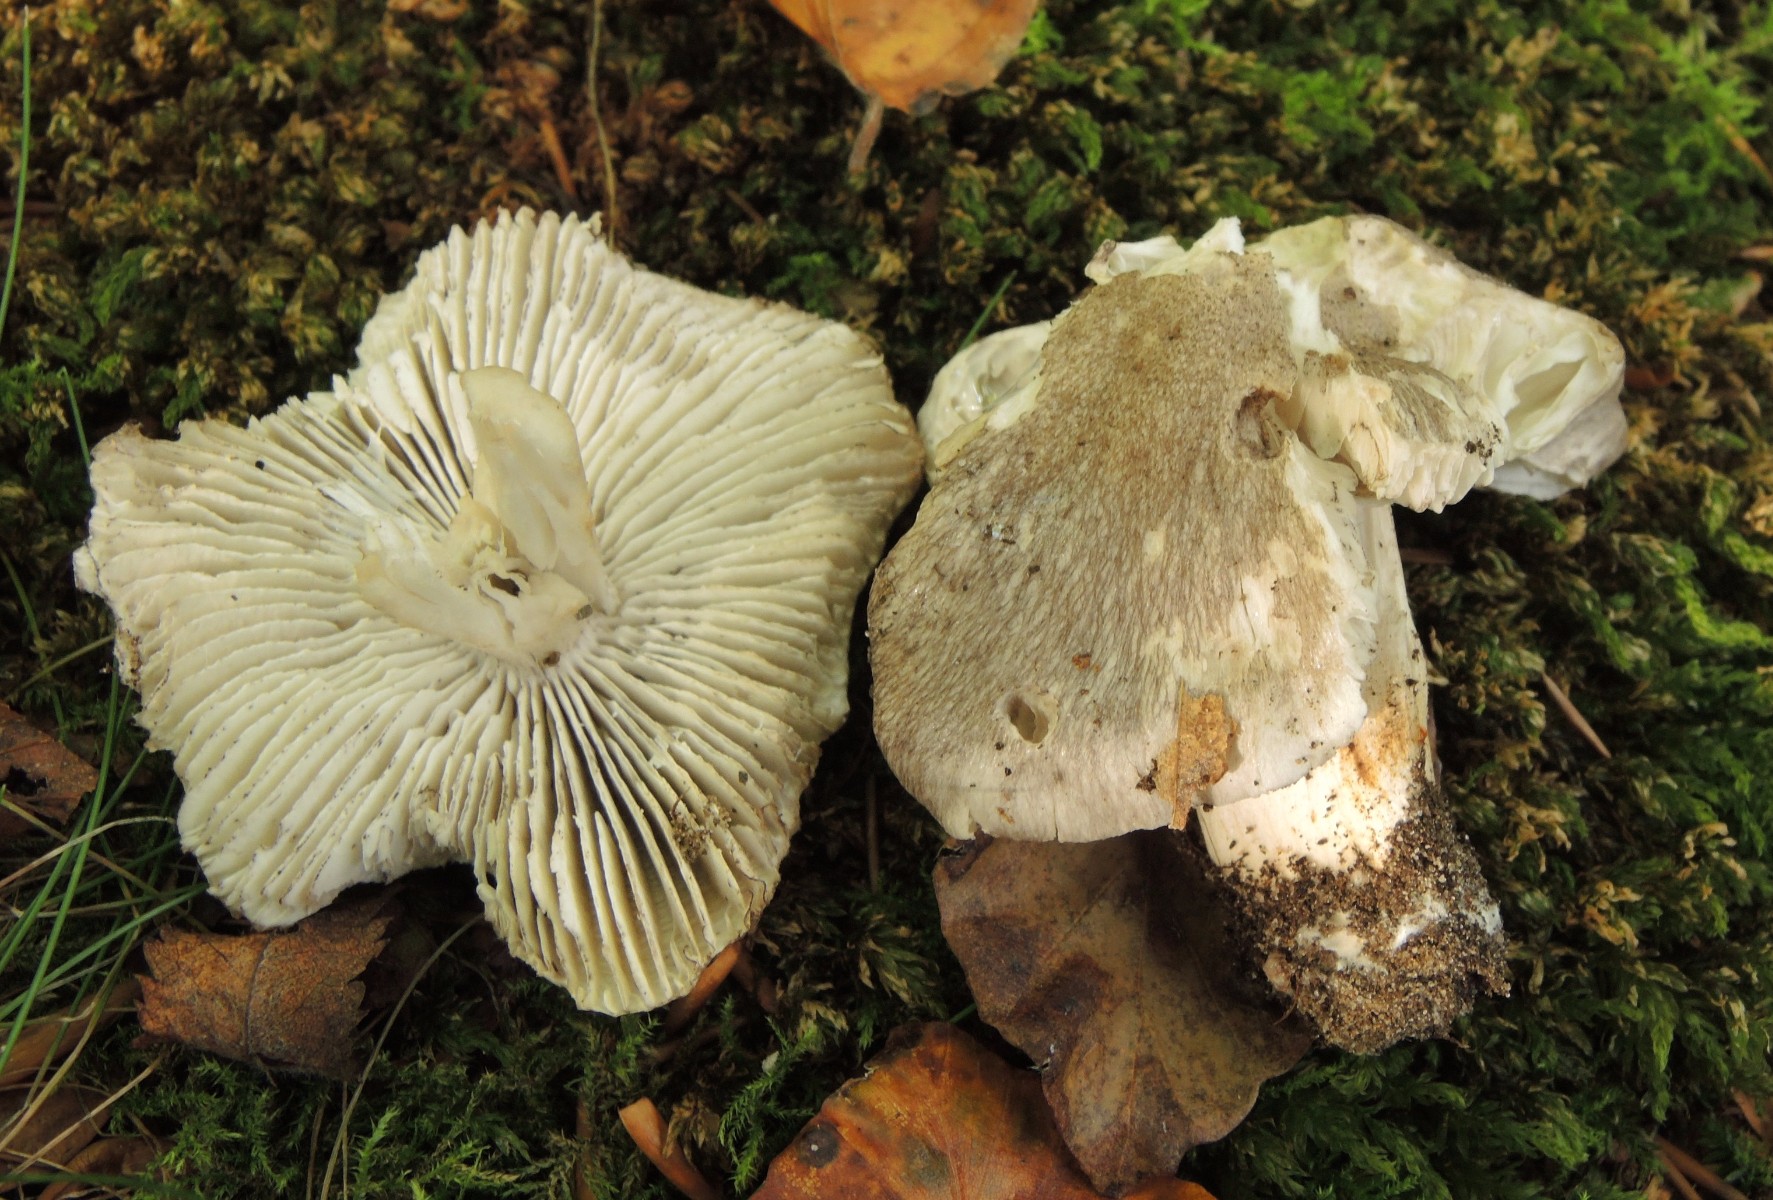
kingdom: Fungi
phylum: Basidiomycota
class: Agaricomycetes
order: Agaricales
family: Tricholomataceae
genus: Tricholoma
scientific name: Tricholoma sciodes
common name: stribet ridderhat
